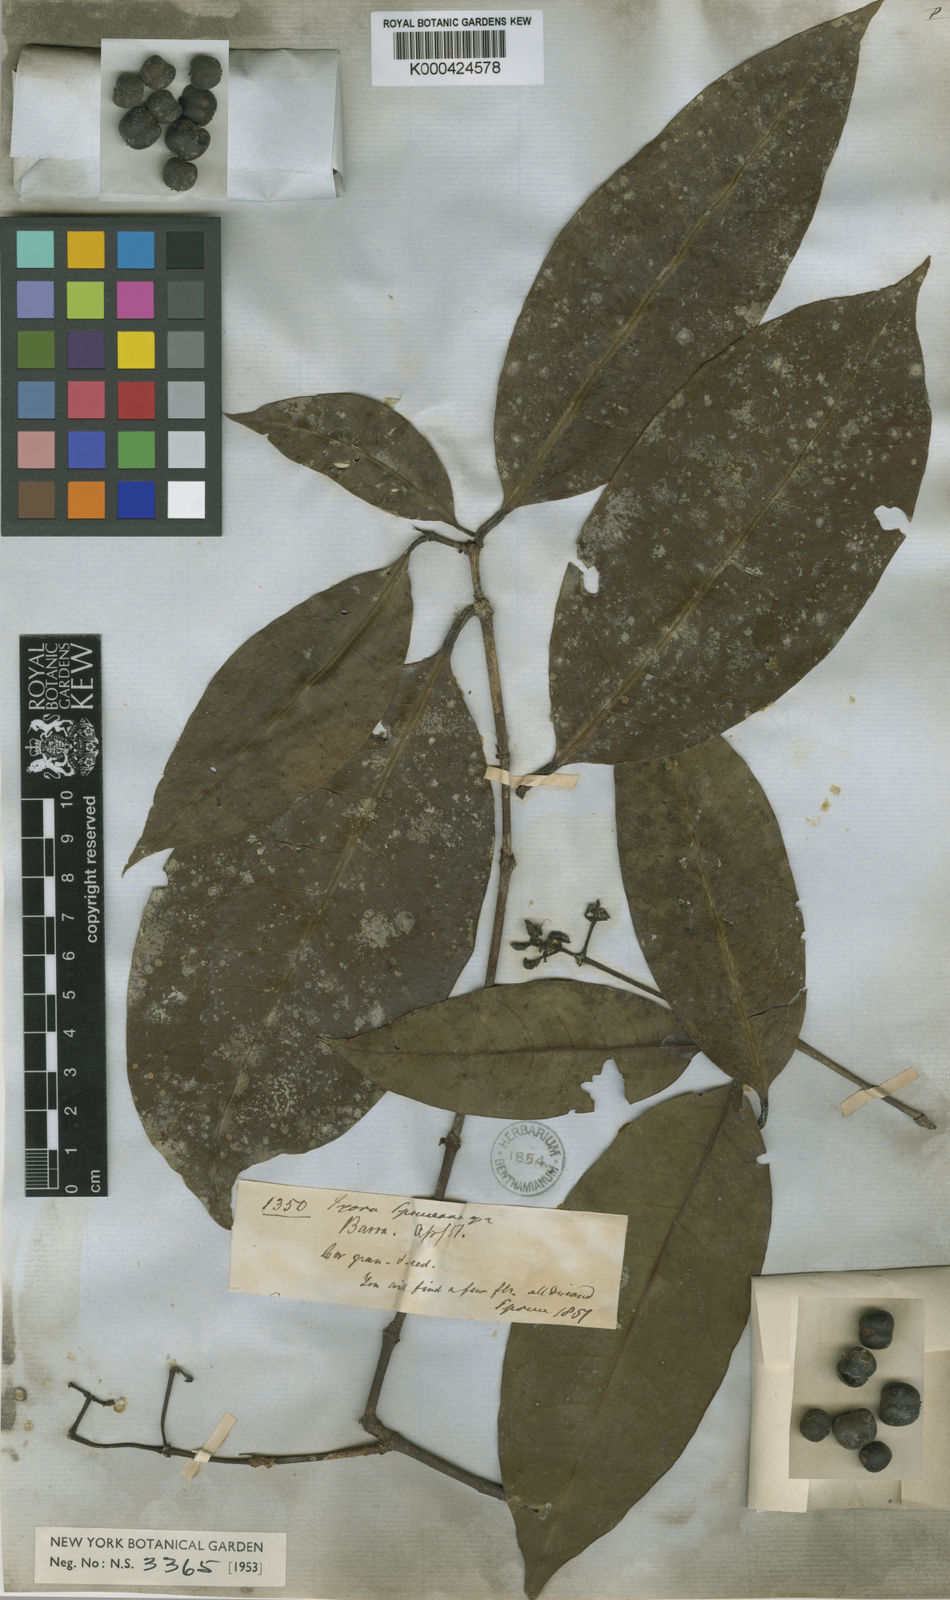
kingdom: Plantae
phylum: Tracheophyta
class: Magnoliopsida
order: Gentianales
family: Rubiaceae
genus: Ixora
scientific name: Ixora
